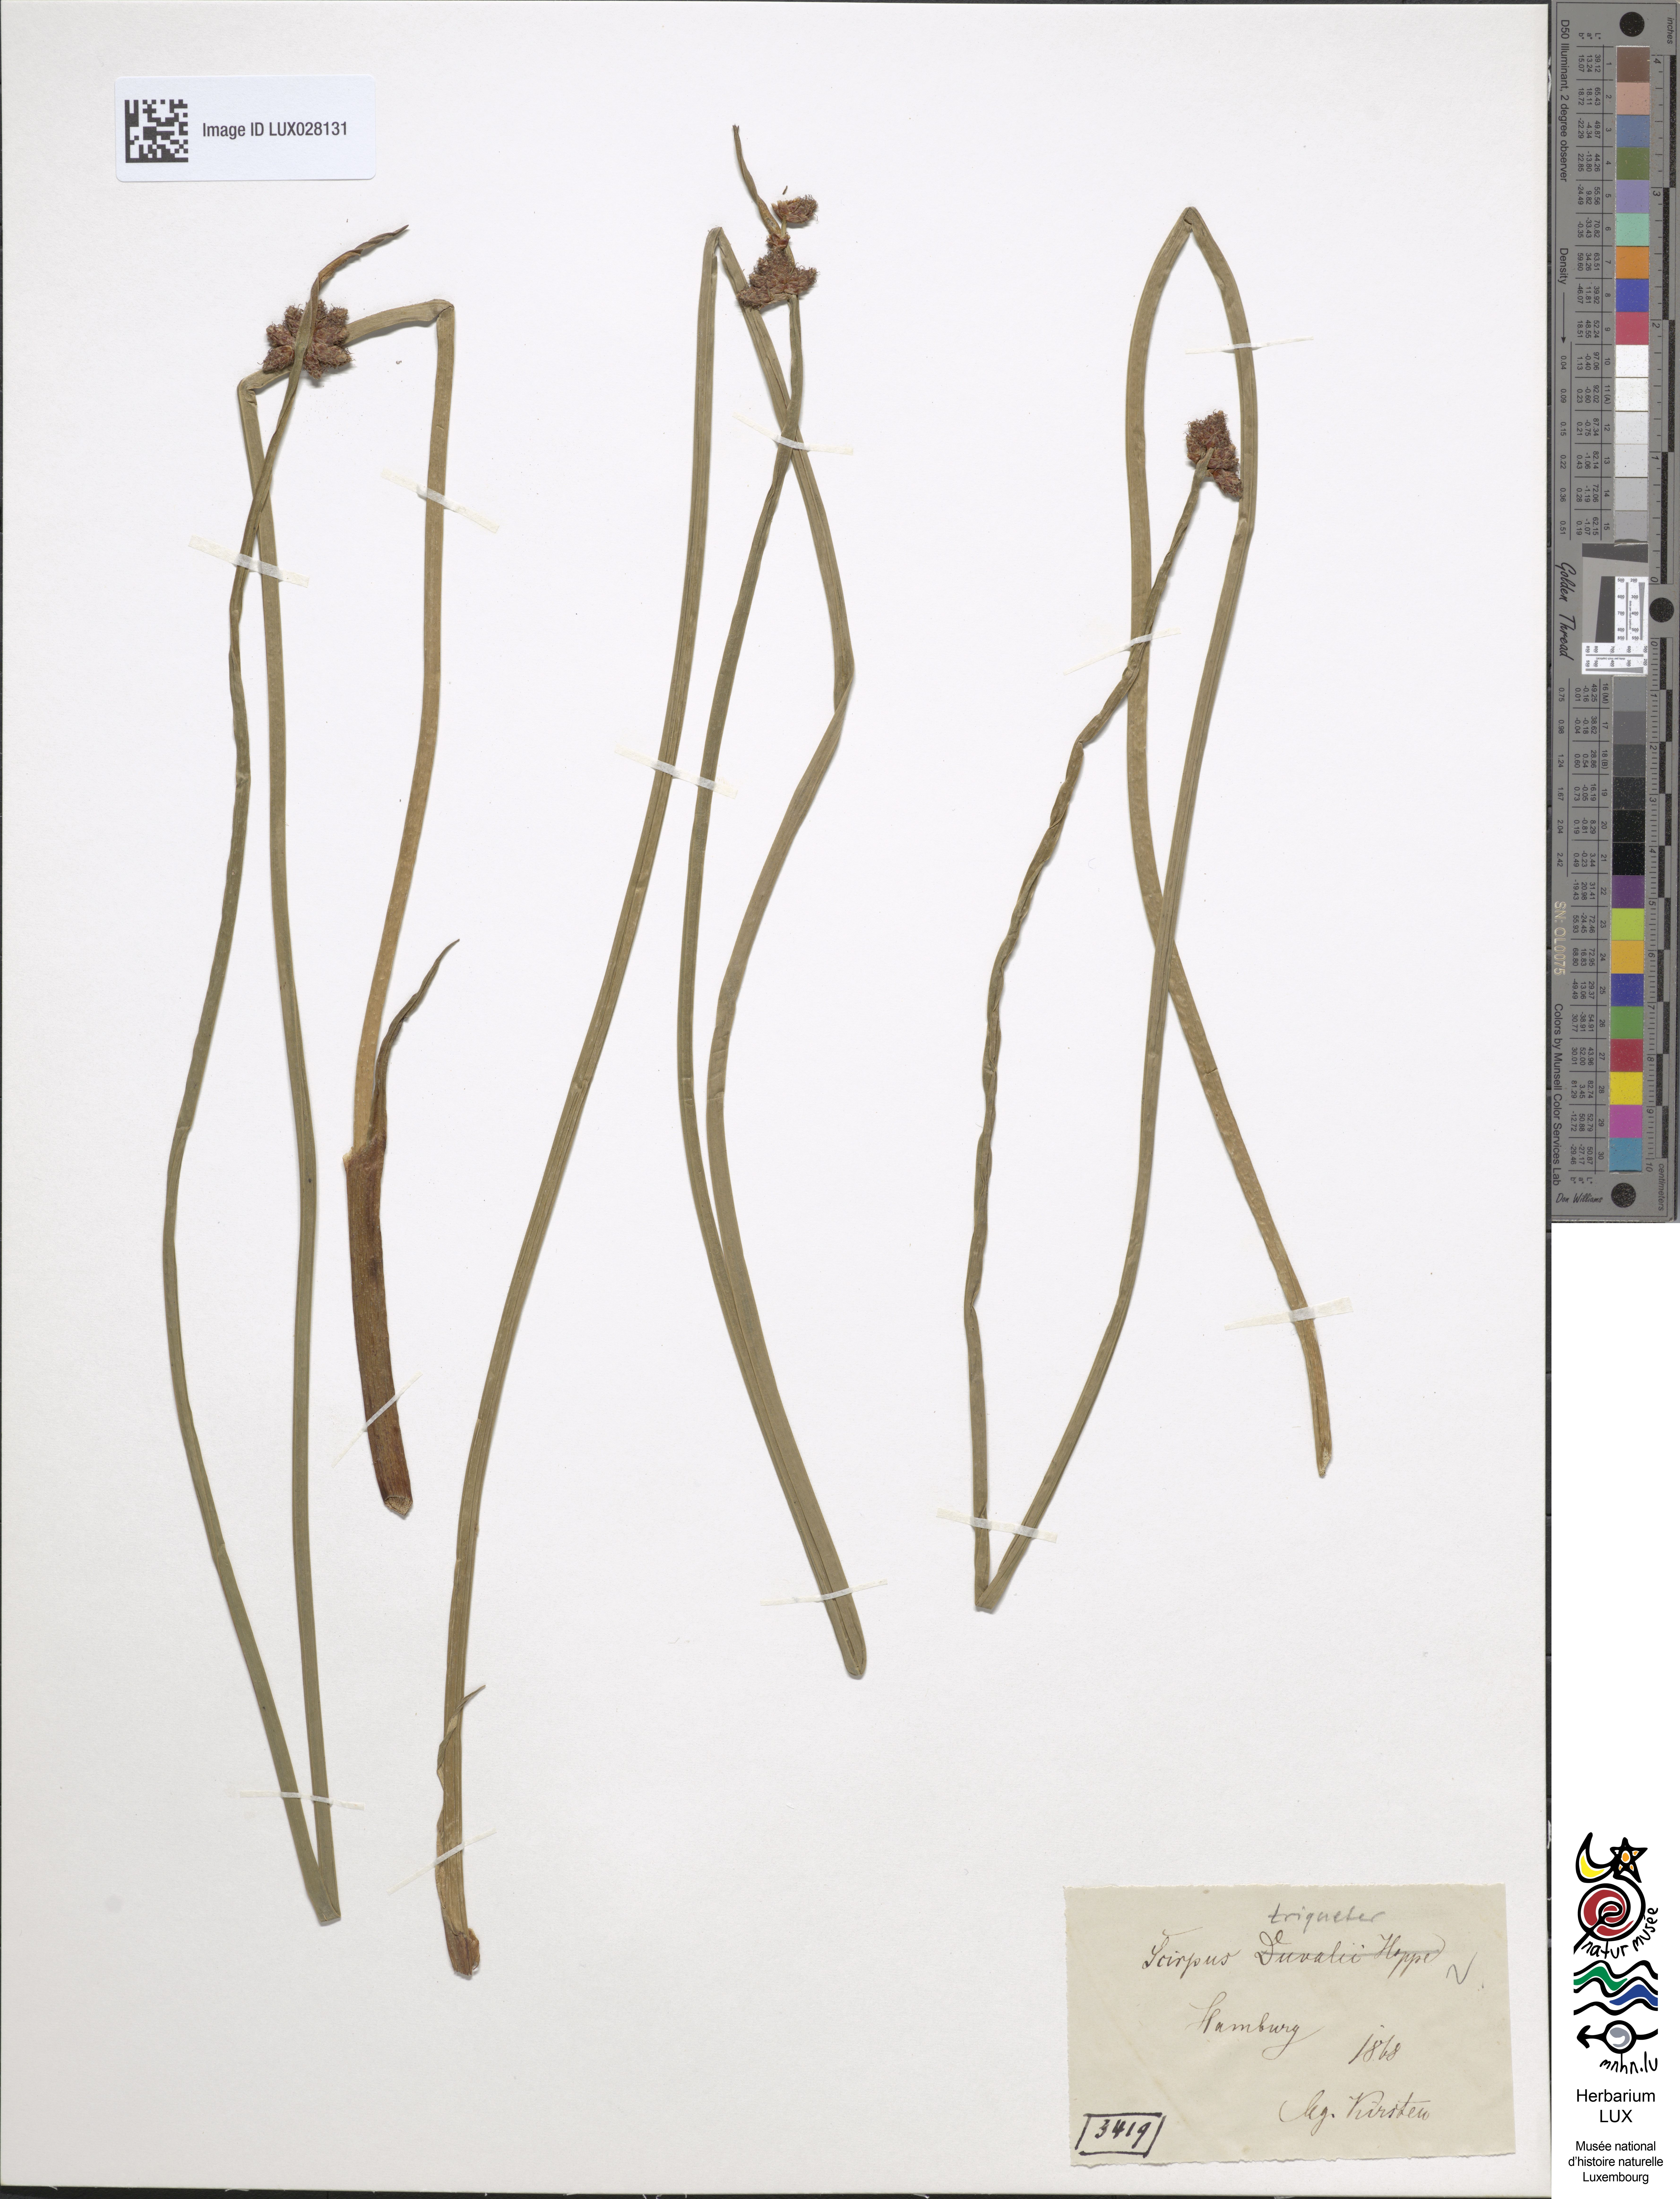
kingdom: Plantae
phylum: Tracheophyta
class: Liliopsida
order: Poales
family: Cyperaceae
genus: Schoenoplectus
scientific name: Schoenoplectus carinatus
